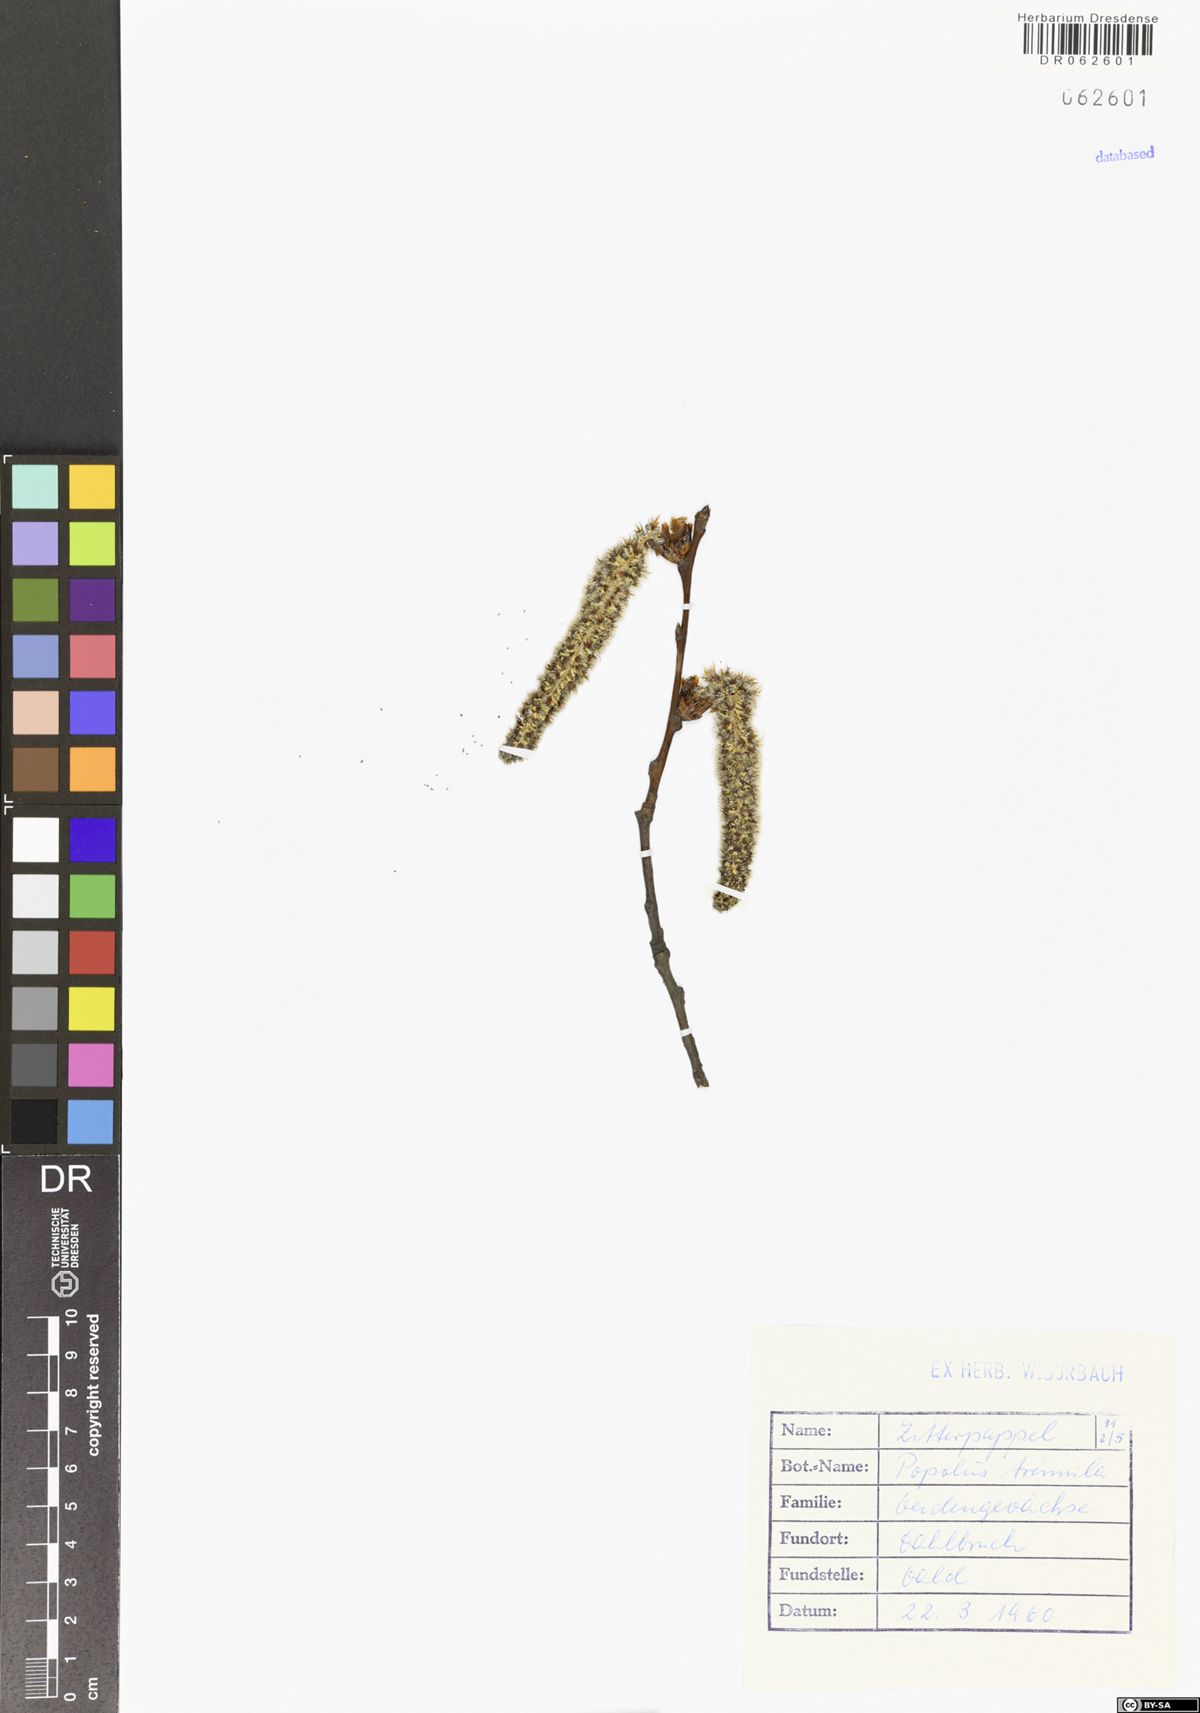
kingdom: Plantae
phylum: Tracheophyta
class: Magnoliopsida
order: Malpighiales
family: Salicaceae
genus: Populus
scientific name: Populus tremula
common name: European aspen
